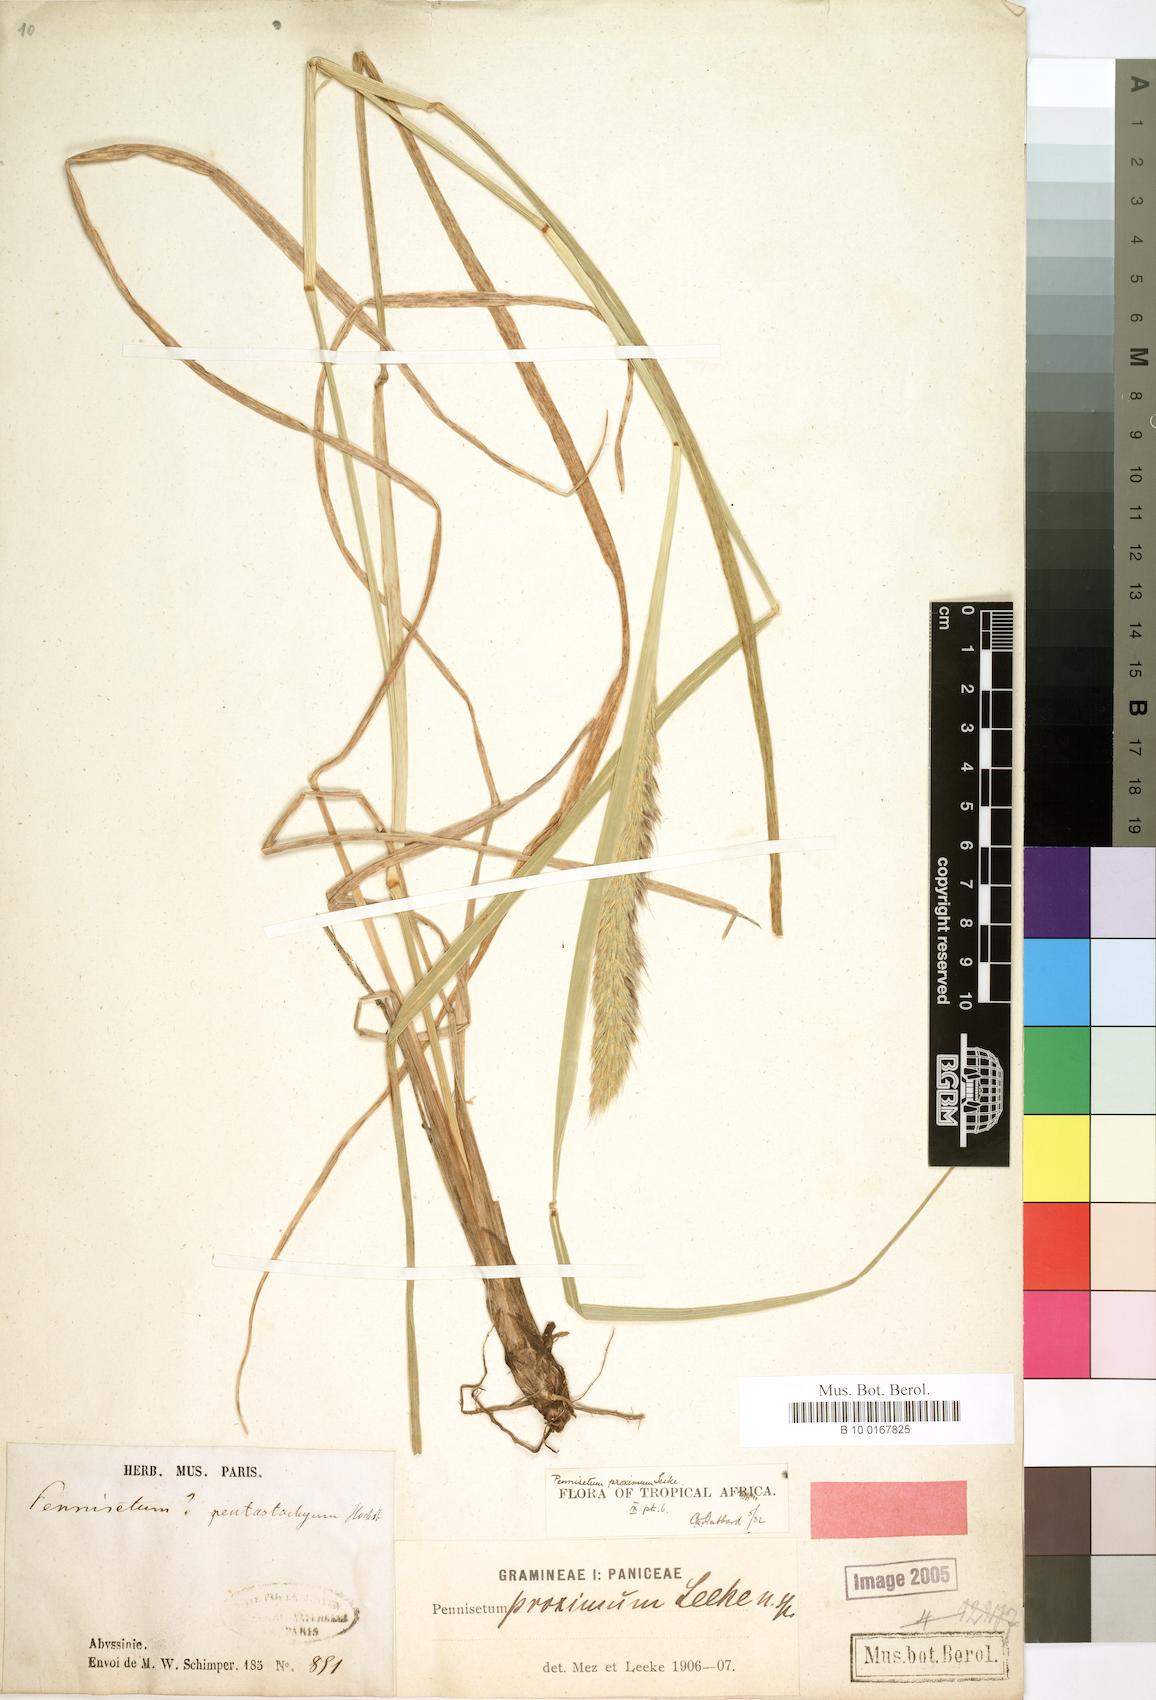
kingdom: Plantae
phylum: Tracheophyta
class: Liliopsida
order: Poales
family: Poaceae
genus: Cenchrus
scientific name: Cenchrus squamulatus
